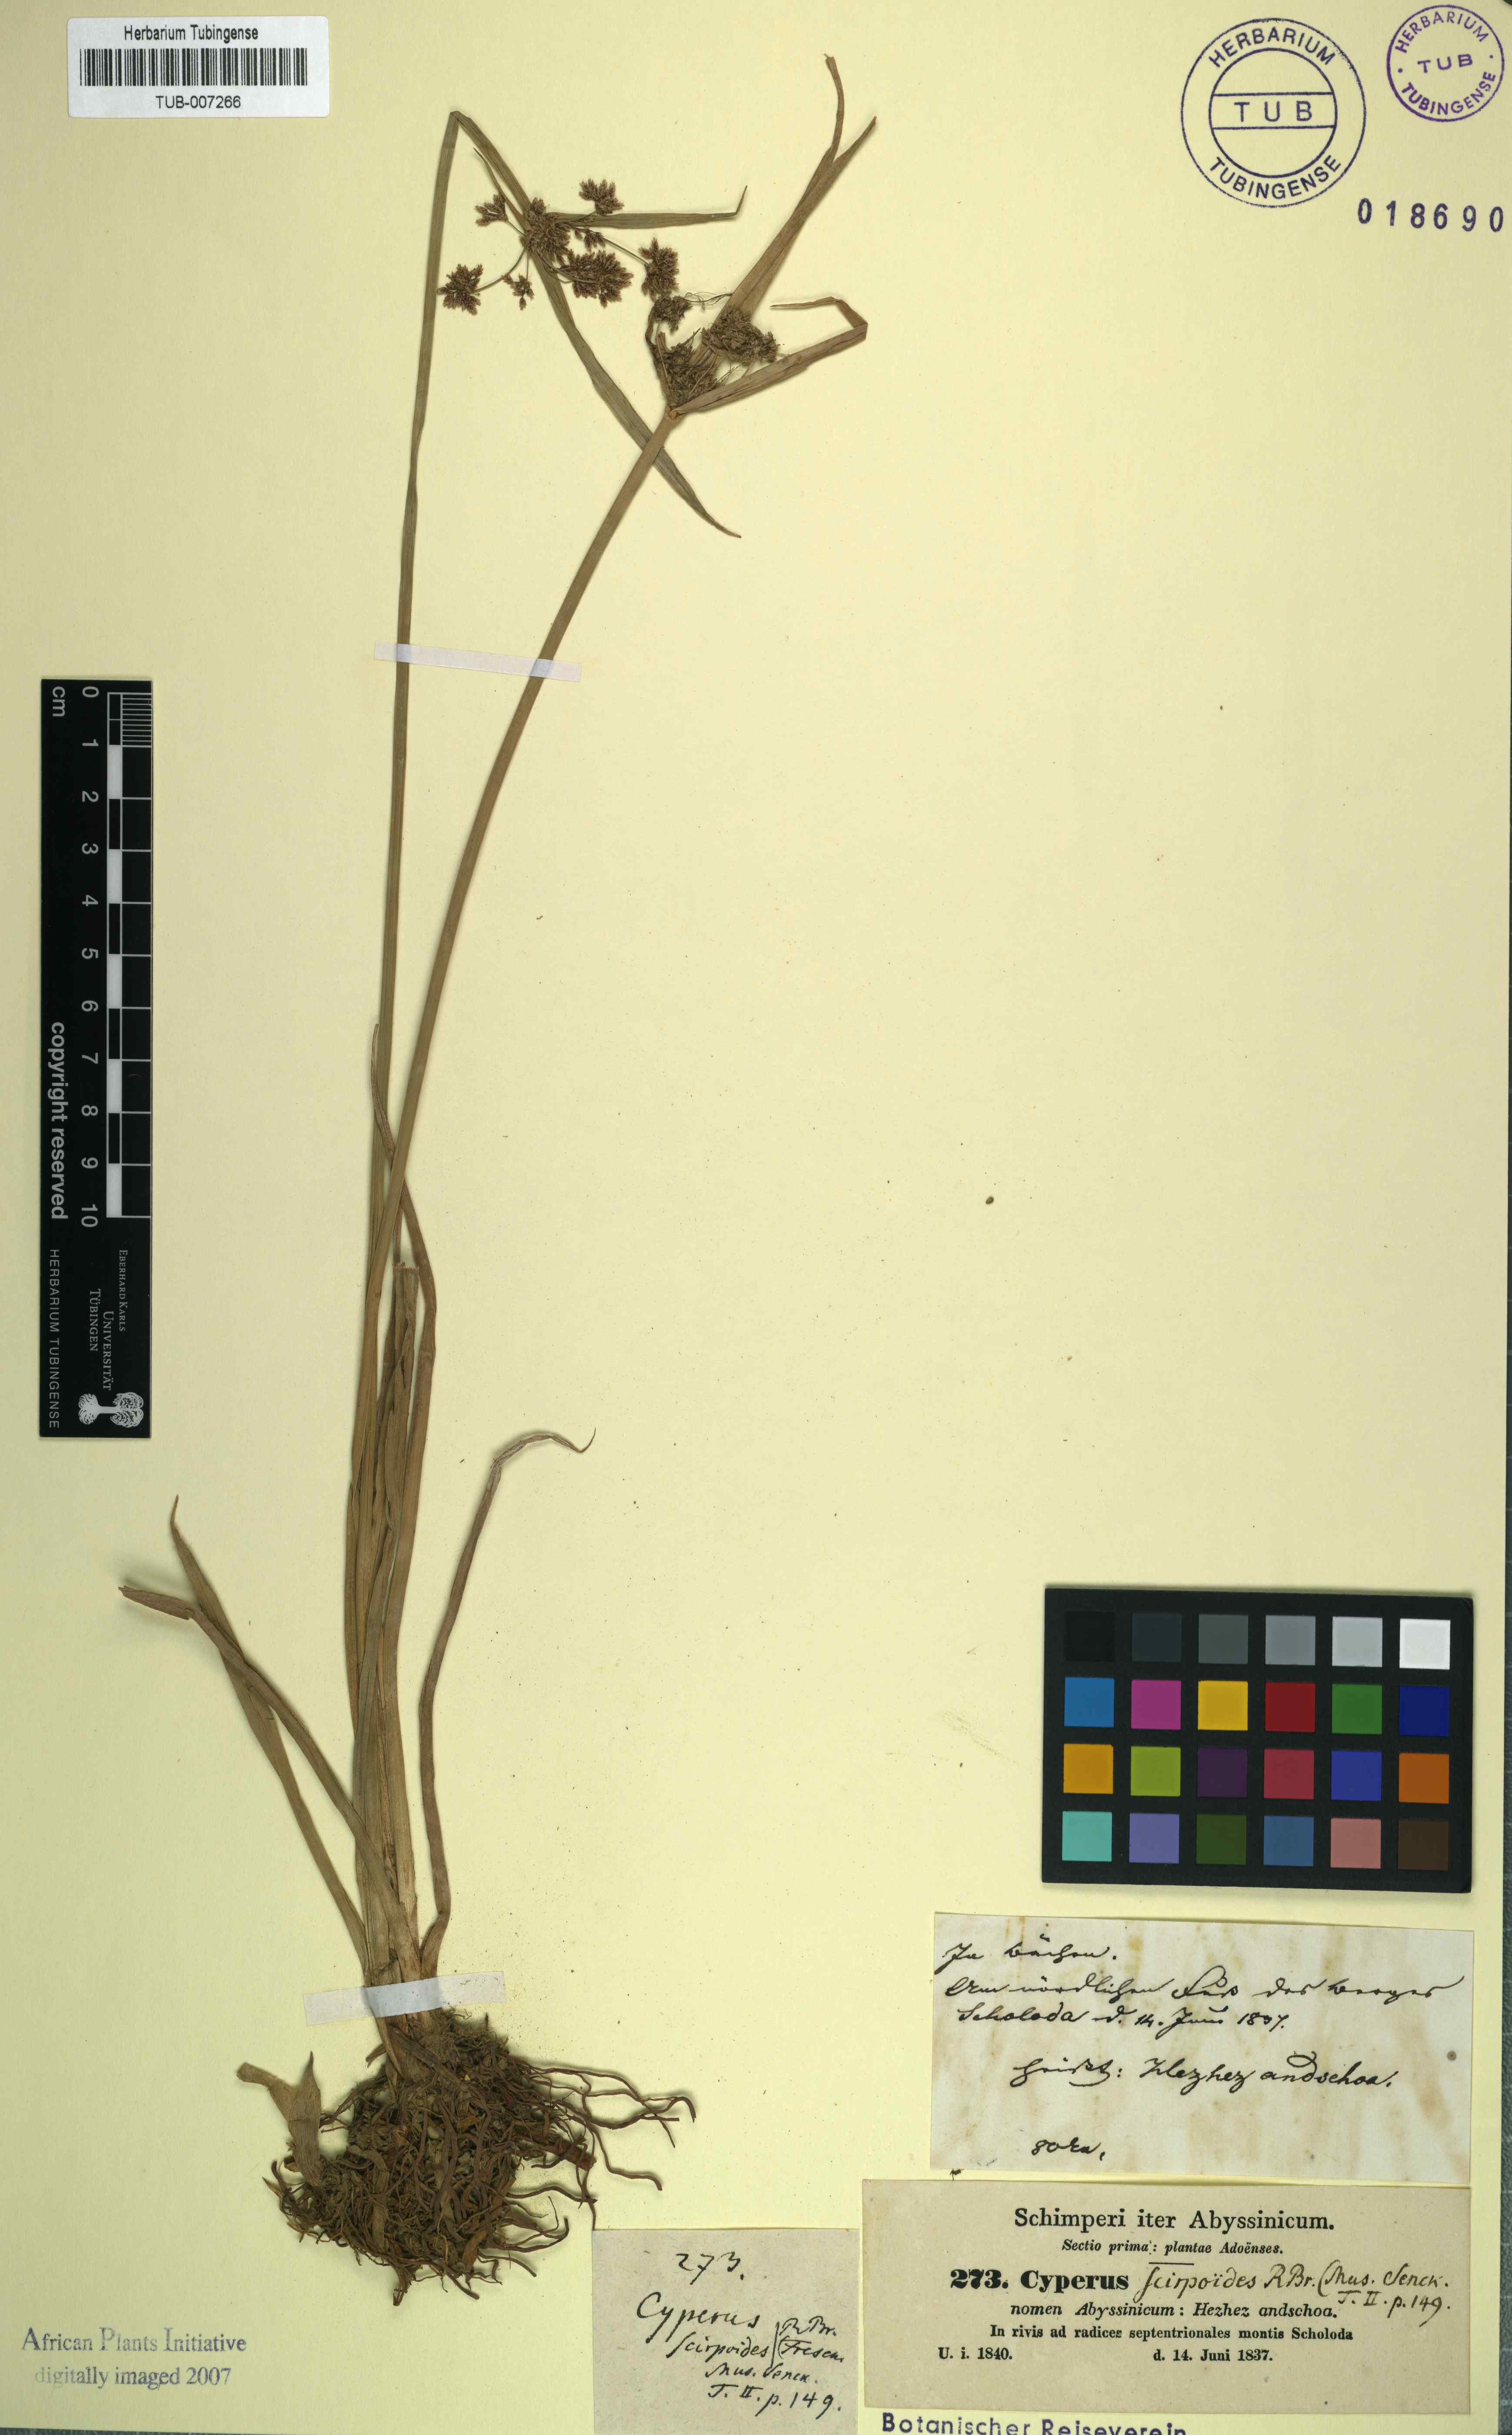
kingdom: Plantae
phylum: Tracheophyta
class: Liliopsida
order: Poales
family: Cyperaceae
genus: Cyperus
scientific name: Cyperus dichrostachyus
